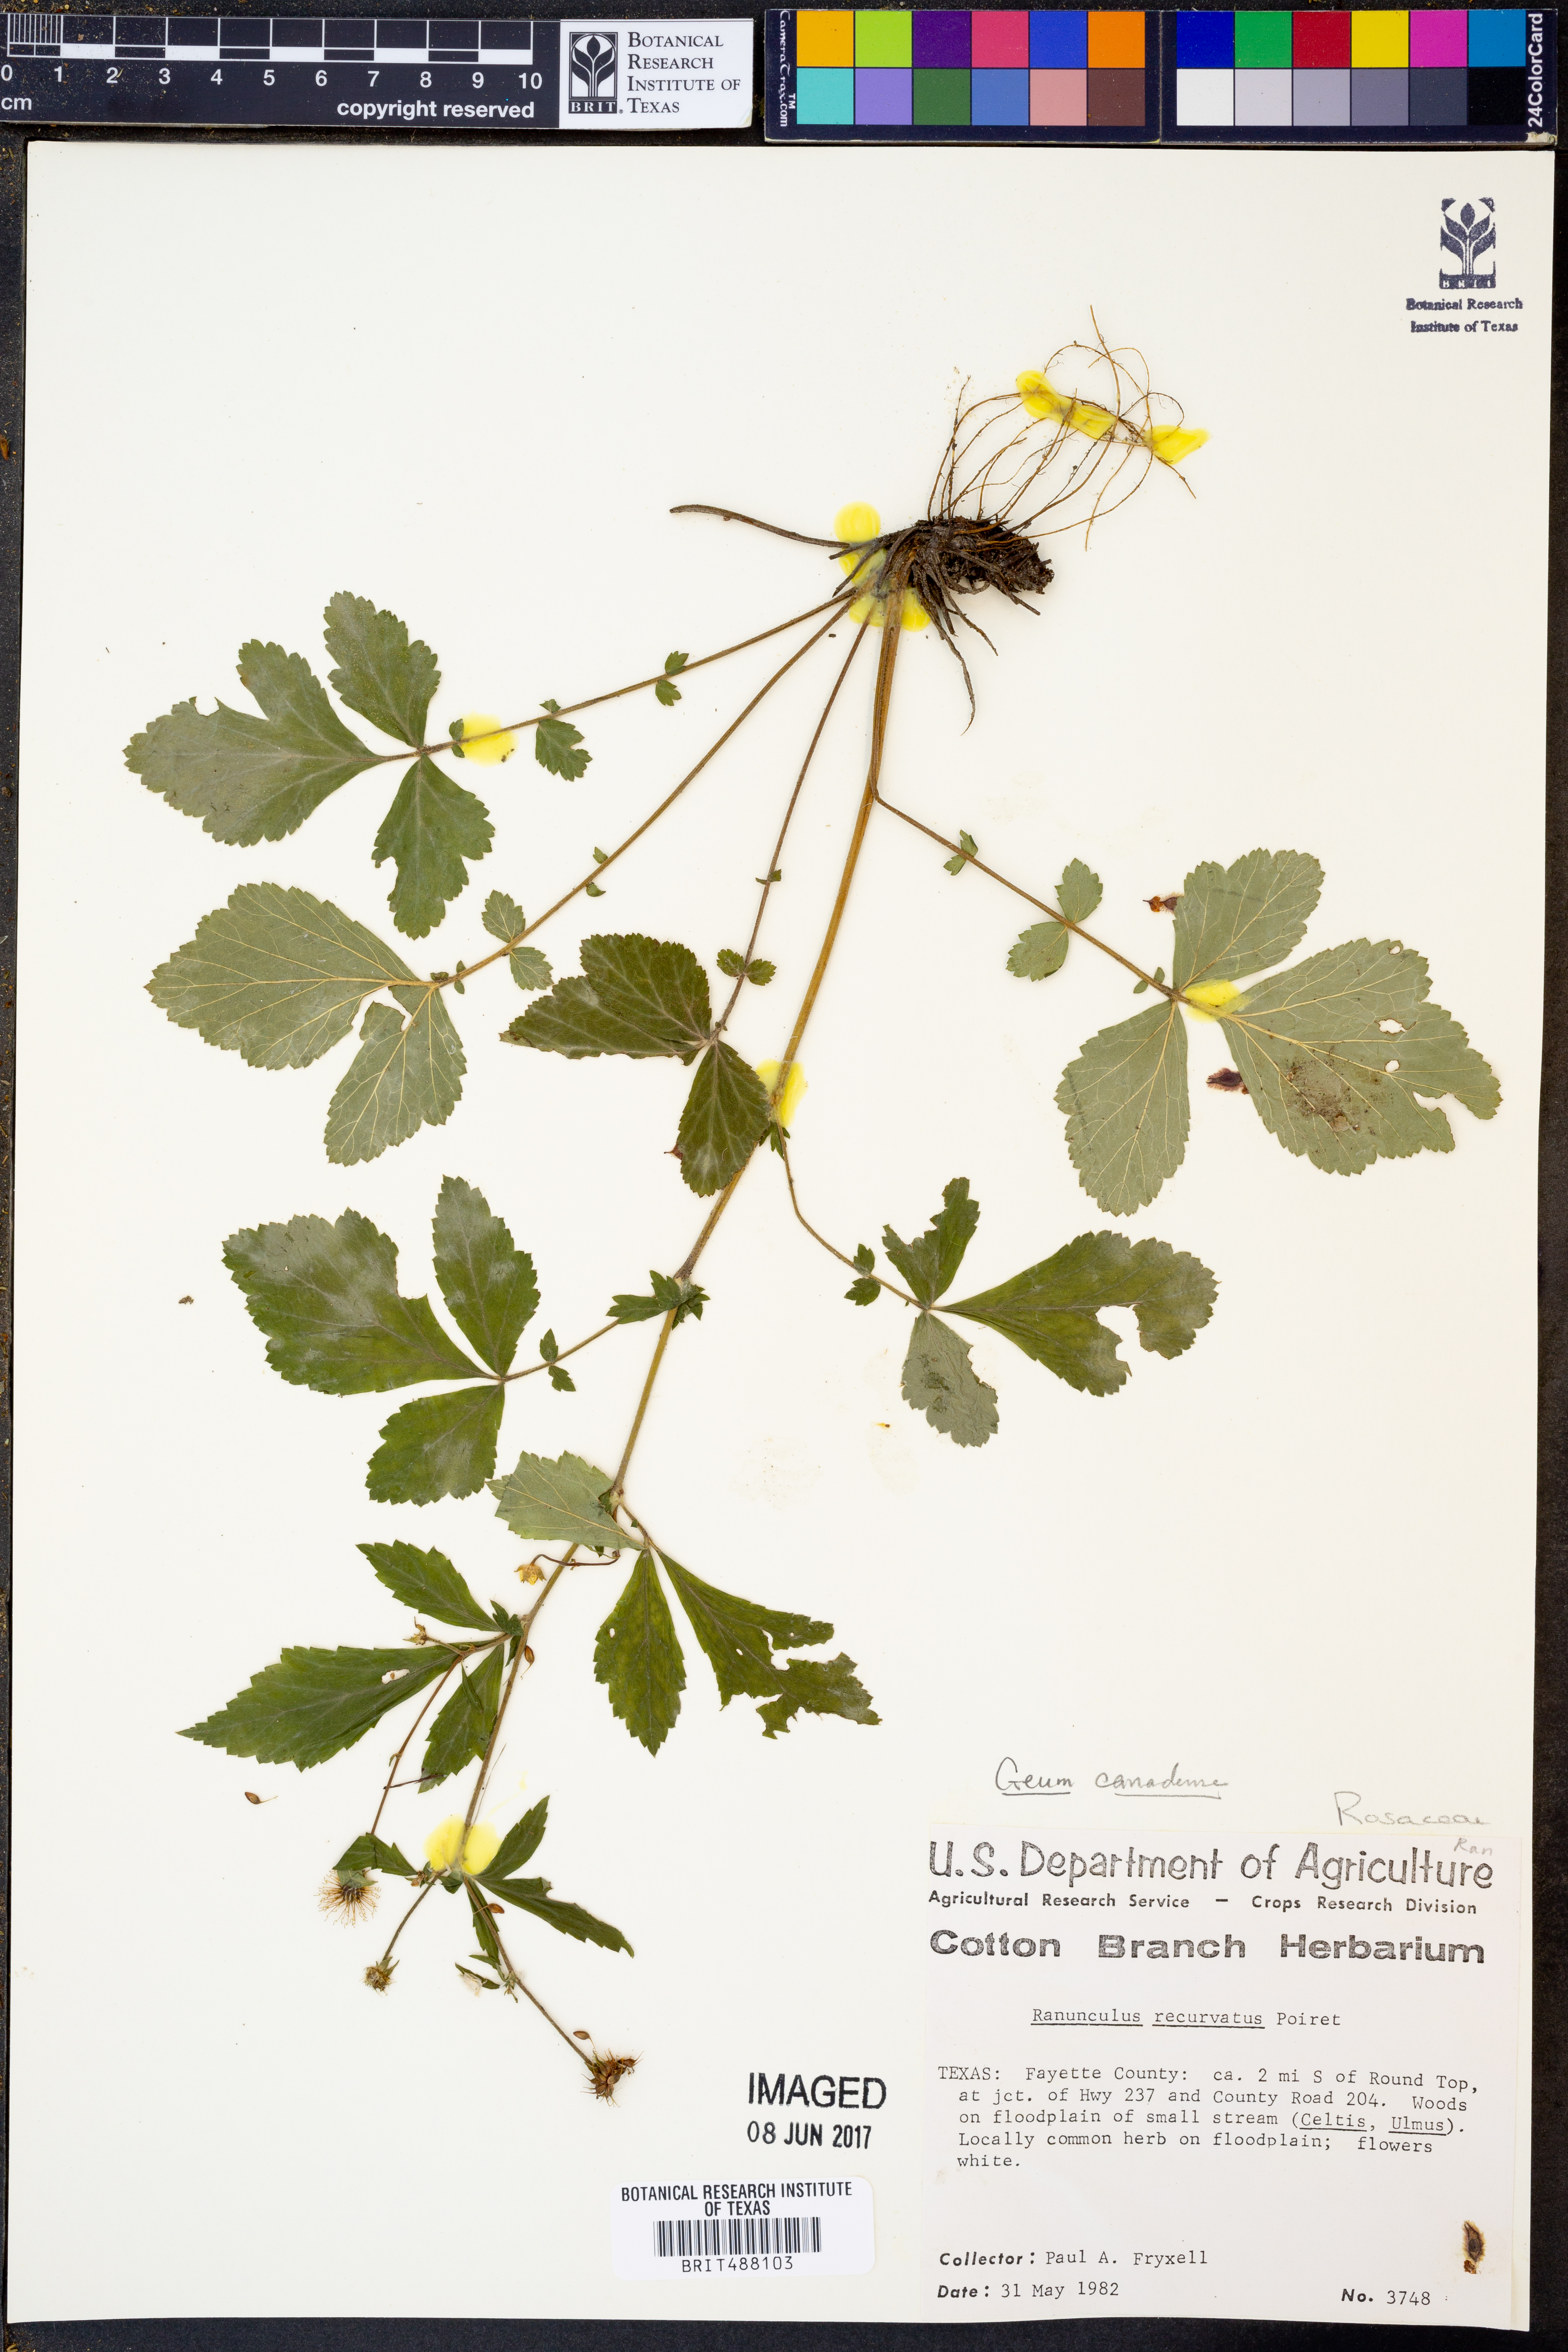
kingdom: Plantae
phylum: Tracheophyta
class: Magnoliopsida
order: Ranunculales
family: Ranunculaceae
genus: Ranunculus
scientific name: Ranunculus recurvatus
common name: Blisterwort
